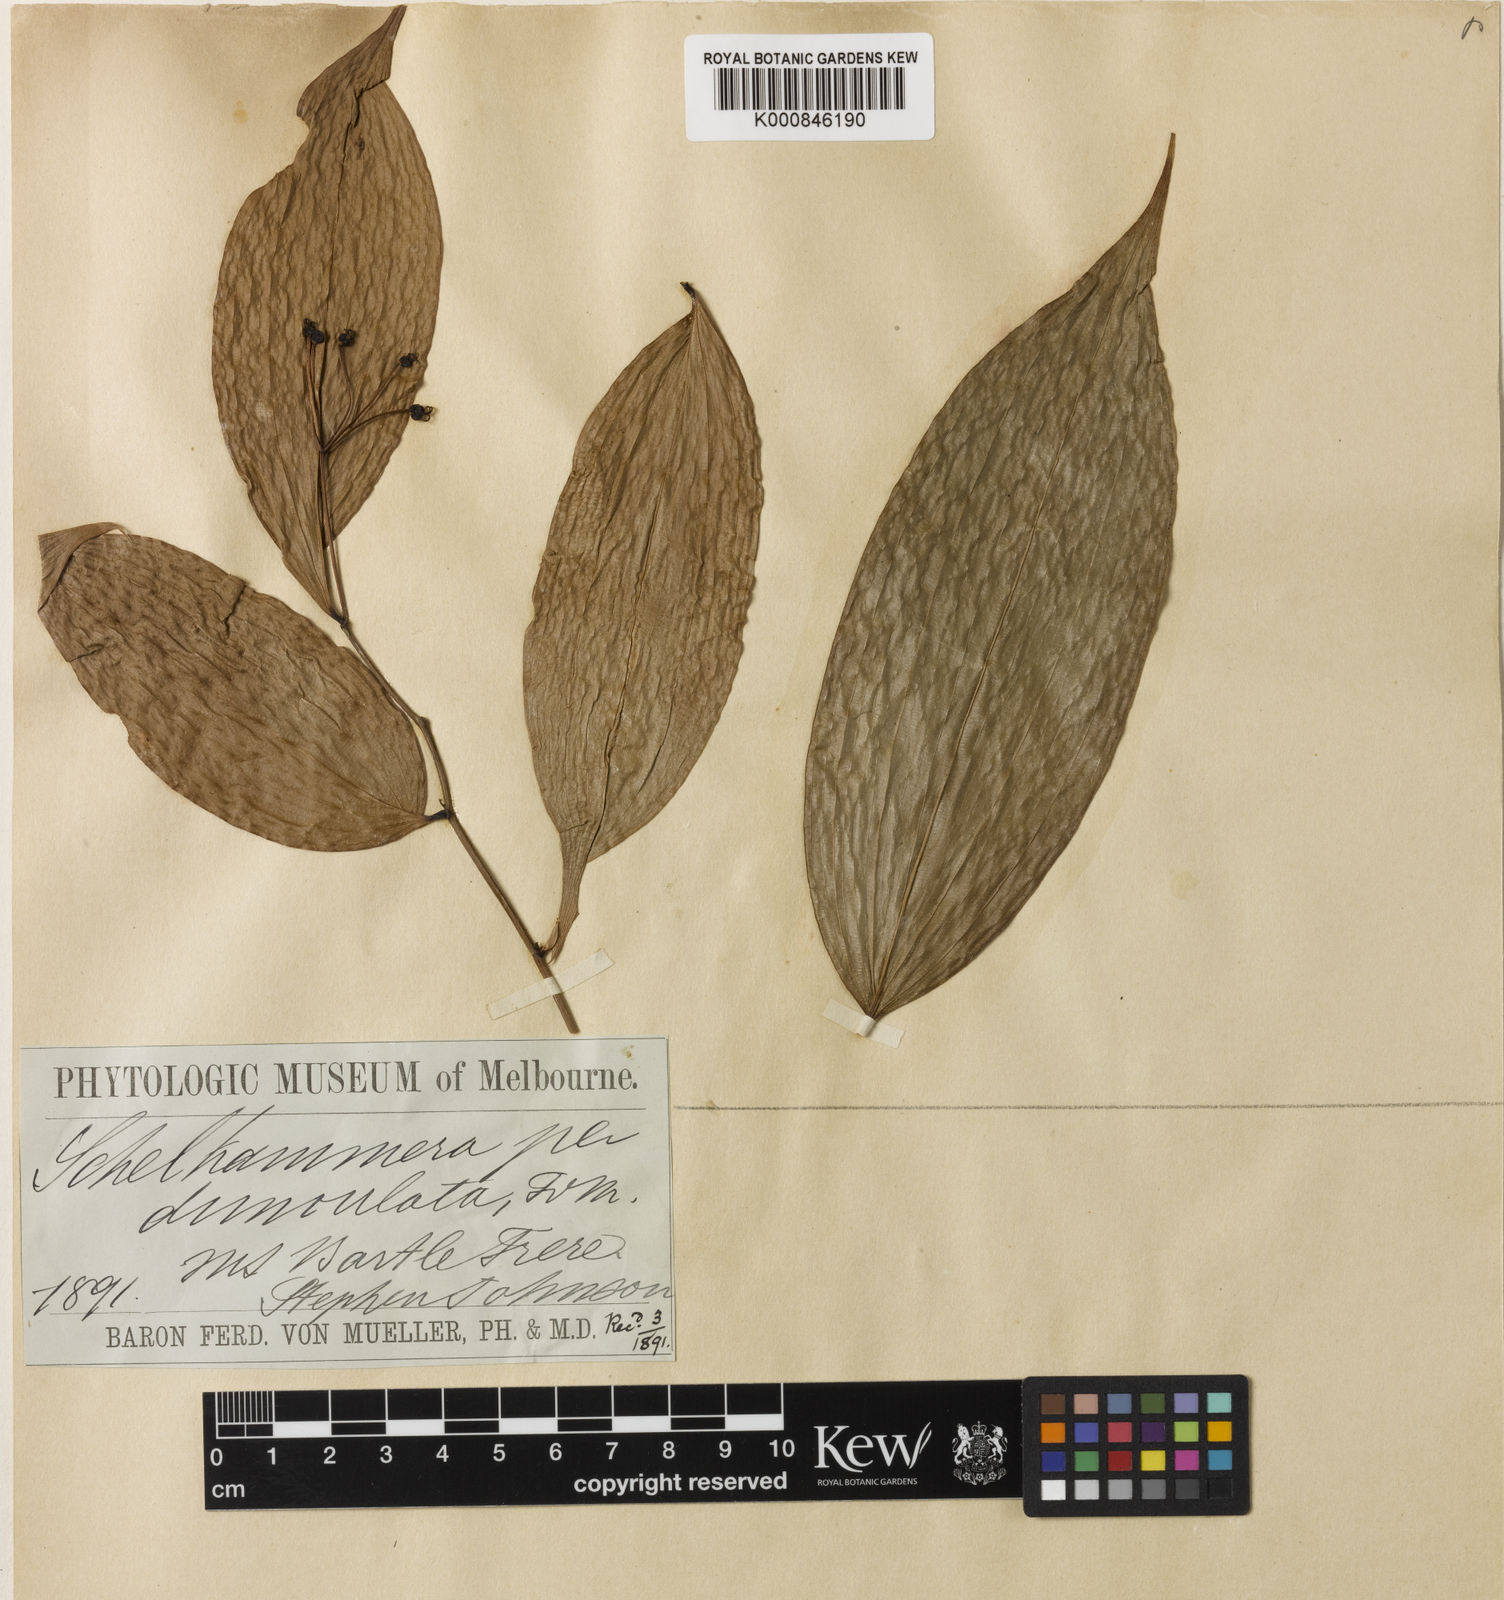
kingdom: Plantae
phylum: Tracheophyta
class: Liliopsida
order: Liliales
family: Colchicaceae
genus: Kuntheria
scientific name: Kuntheria pedunculata
